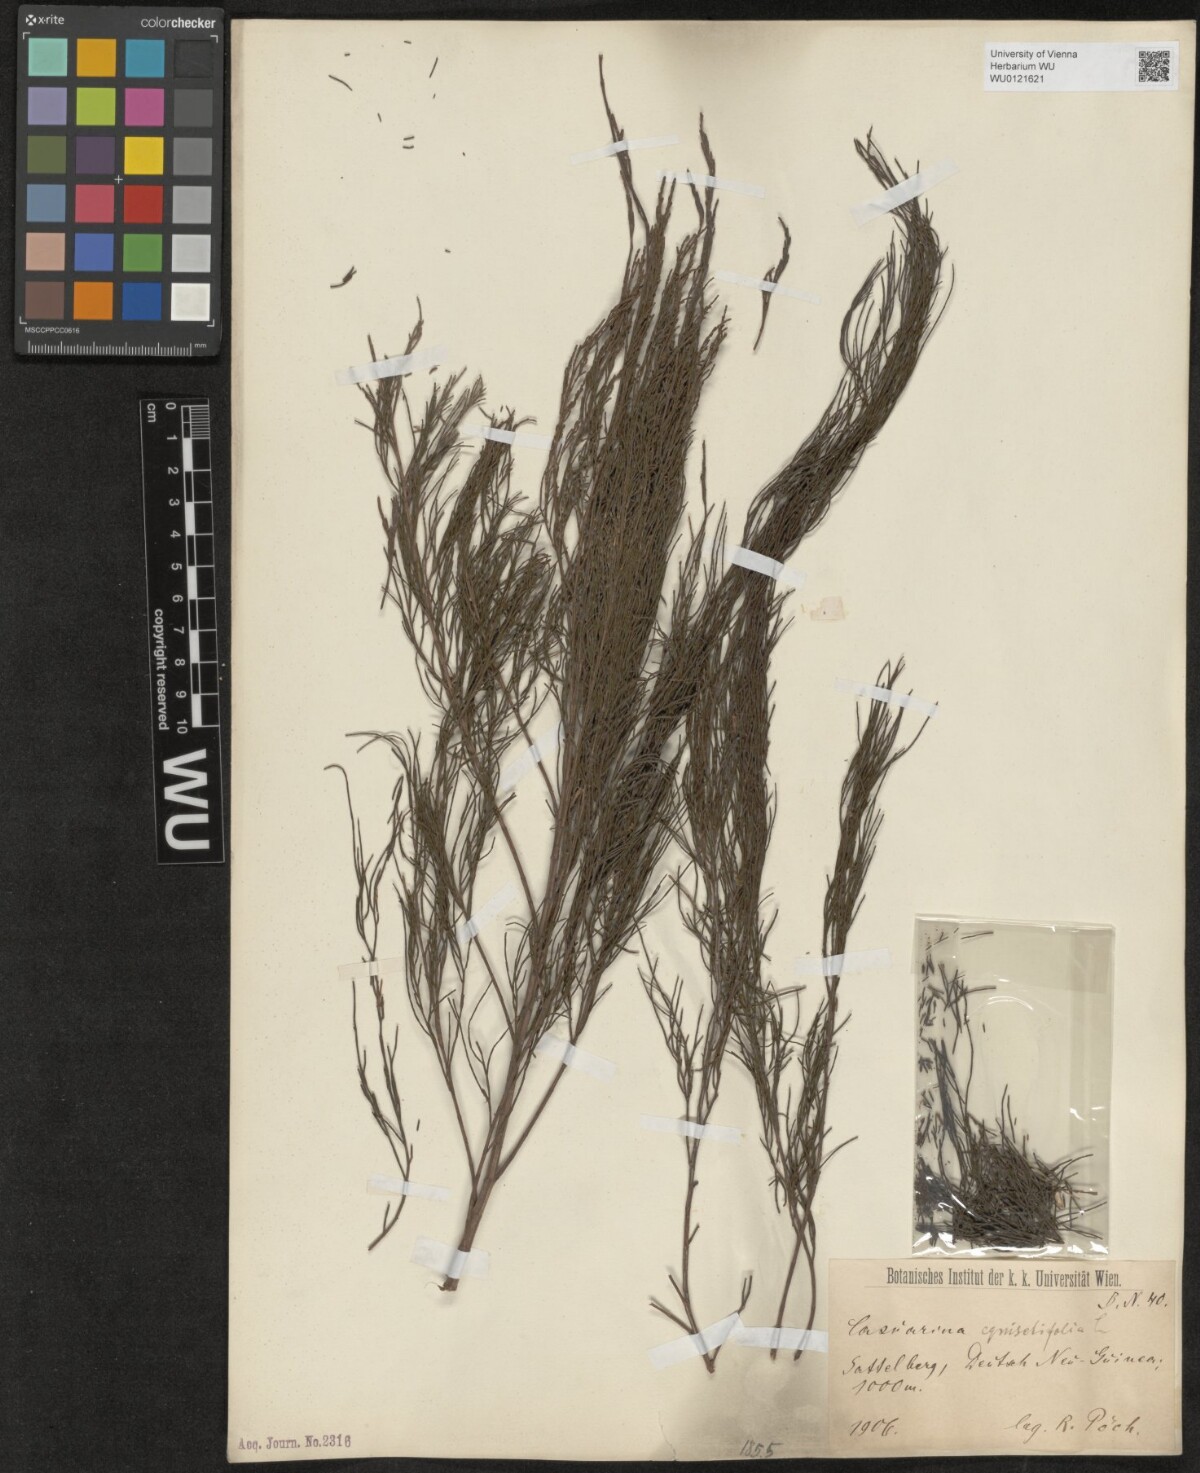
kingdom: Plantae
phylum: Tracheophyta
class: Magnoliopsida
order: Fagales
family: Casuarinaceae
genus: Casuarina
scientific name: Casuarina equisetifolia
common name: Beach sheoak
